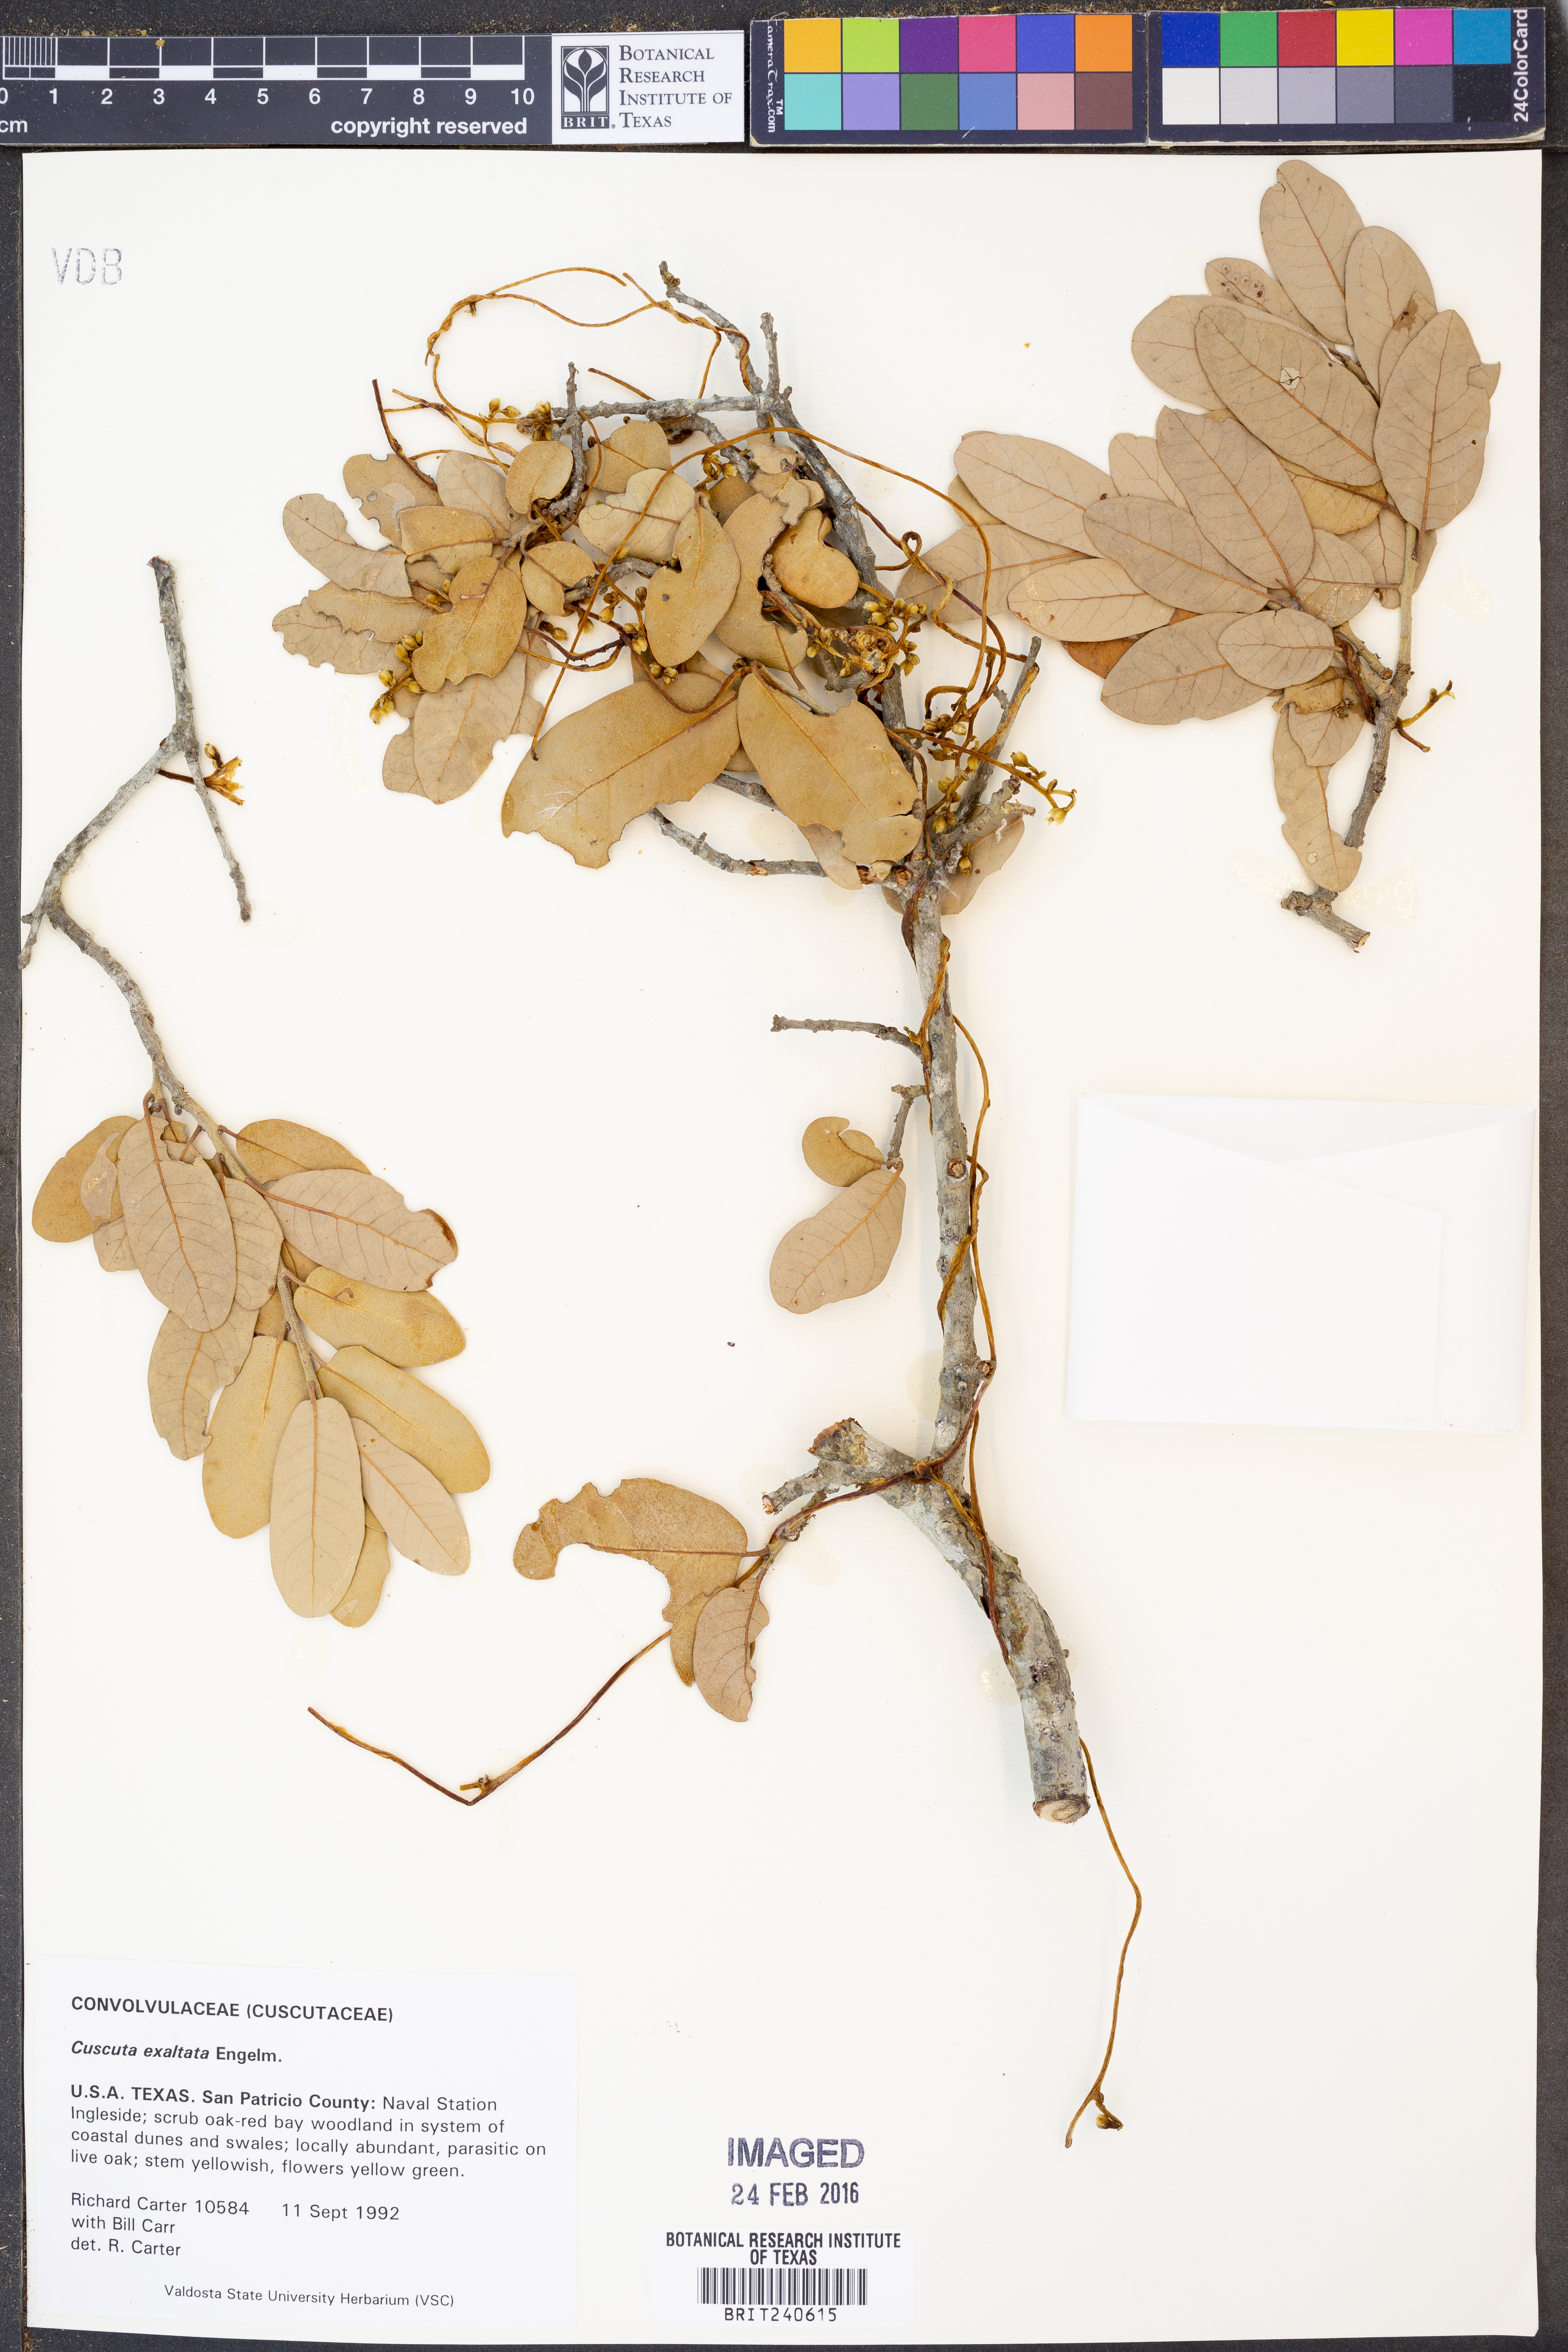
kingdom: Plantae
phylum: Tracheophyta
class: Magnoliopsida
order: Solanales
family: Convolvulaceae
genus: Cuscuta
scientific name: Cuscuta exaltata
